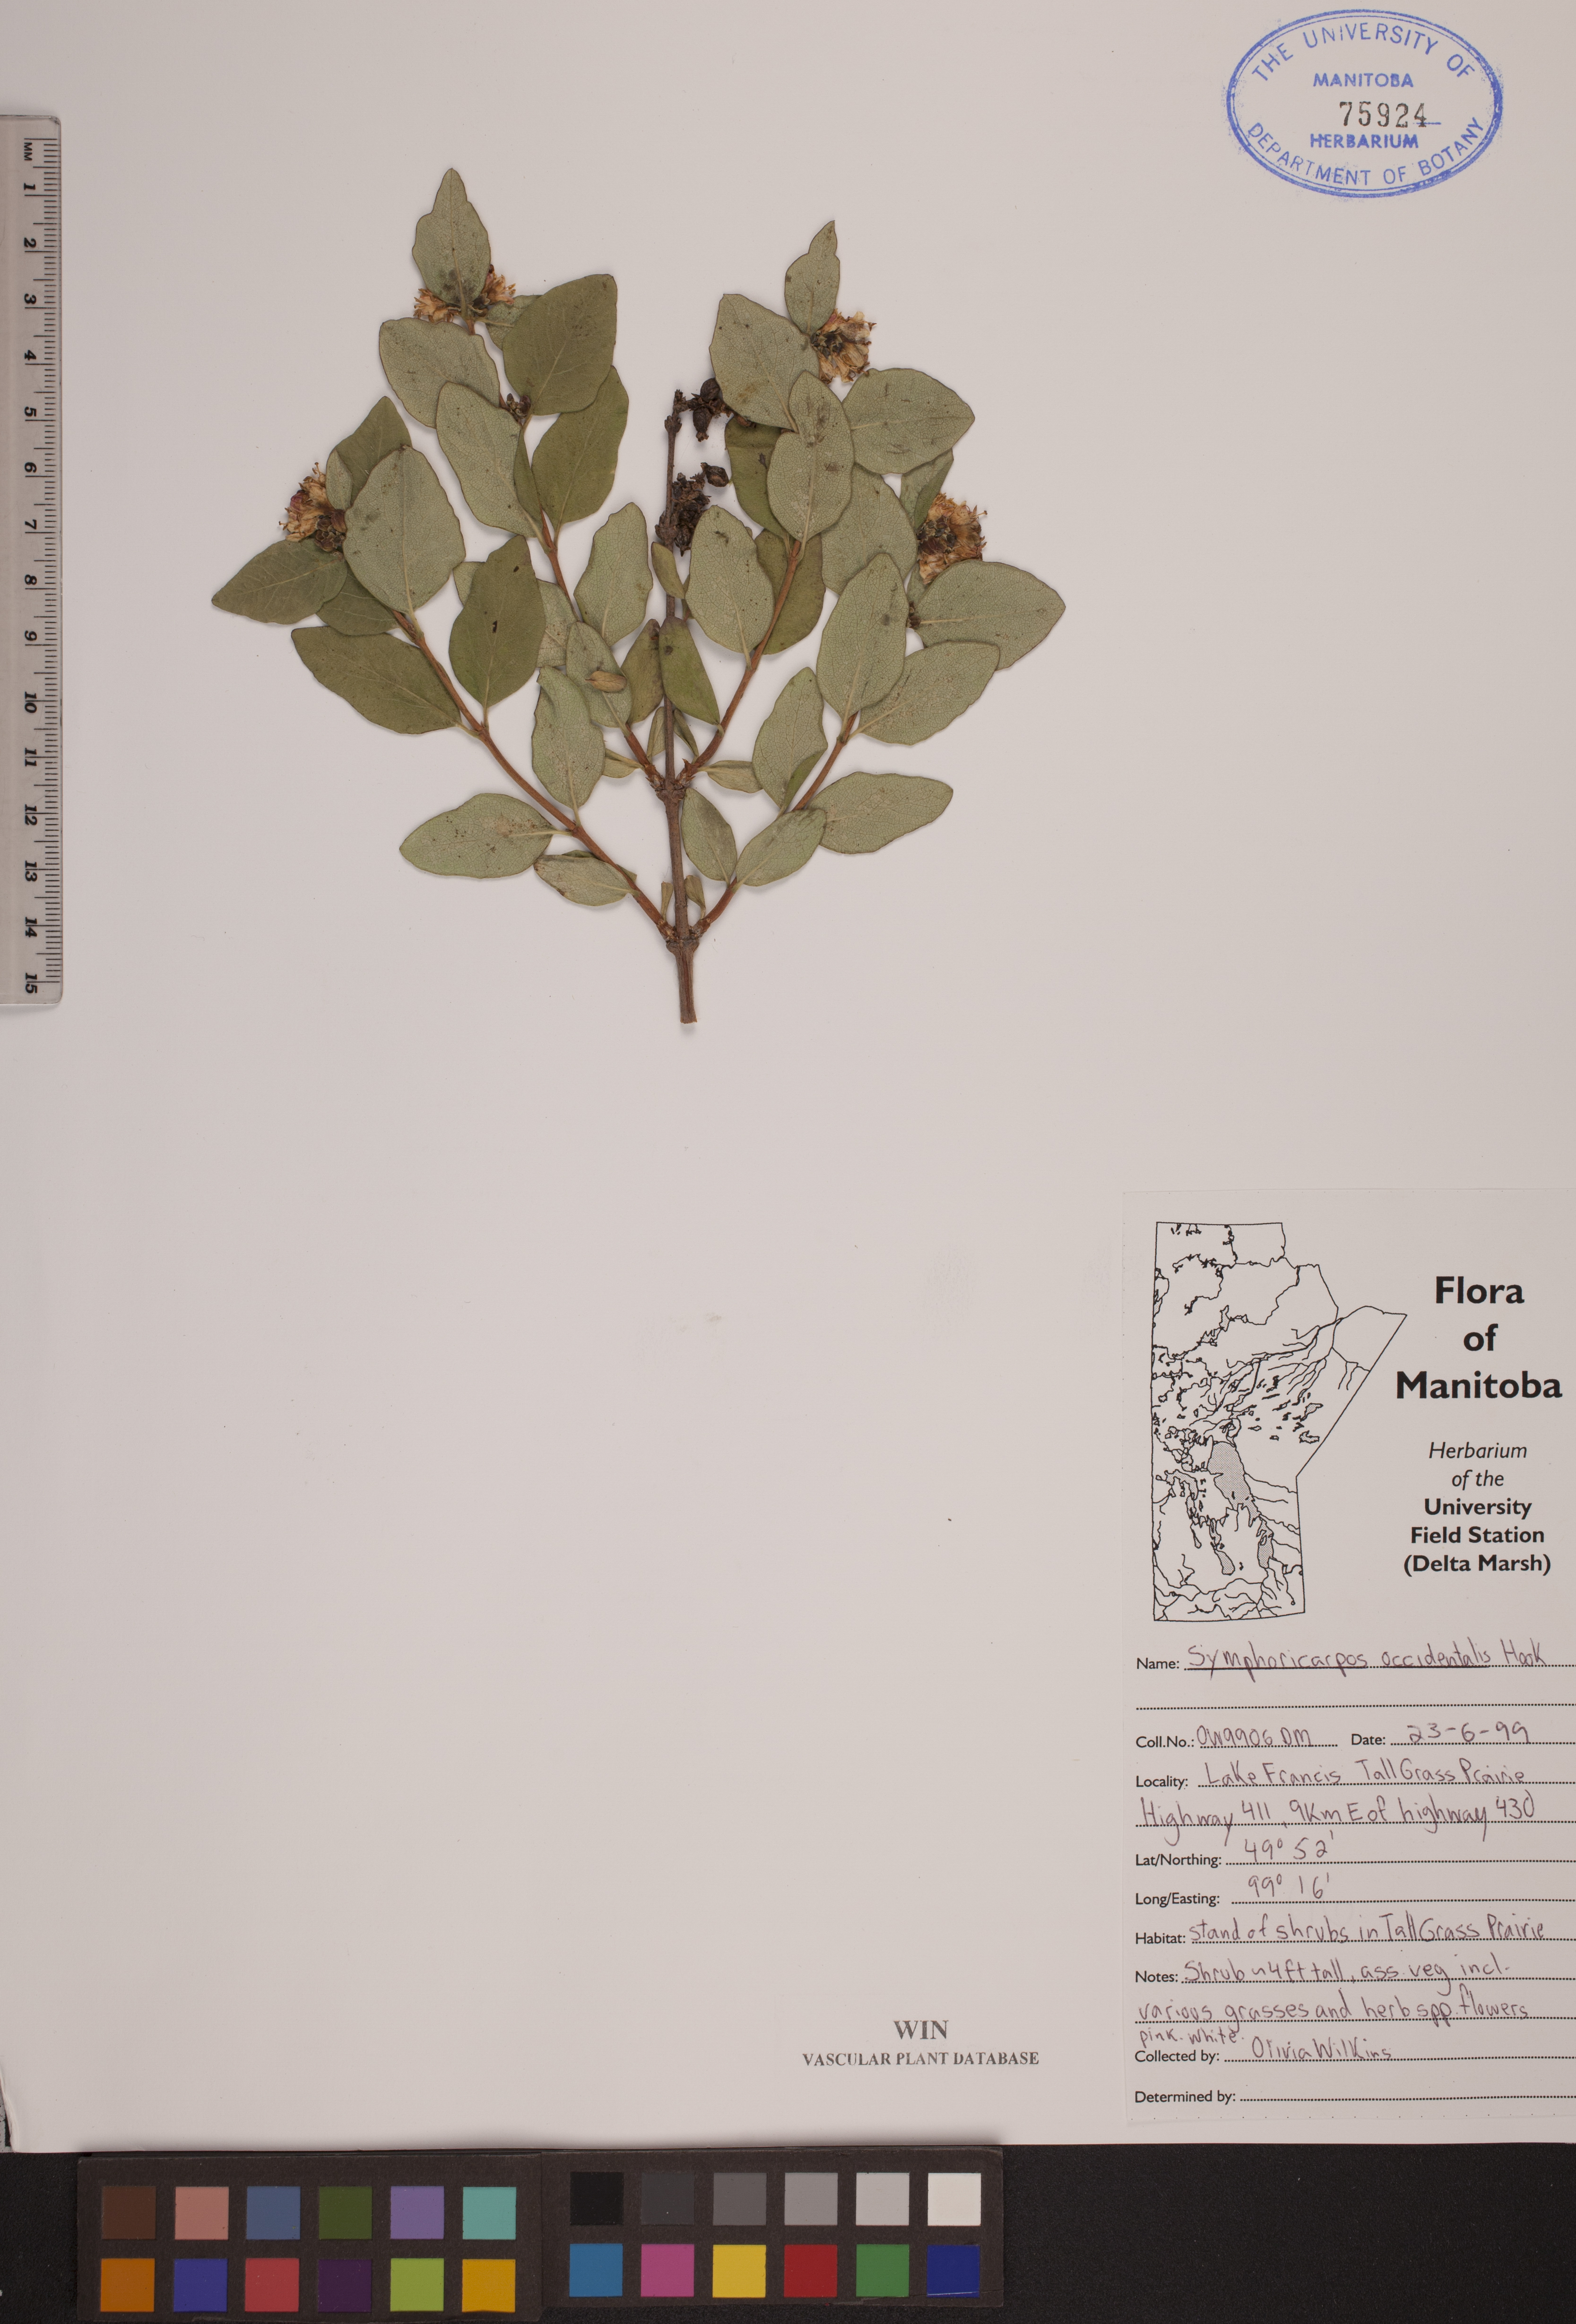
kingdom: Plantae
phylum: Tracheophyta
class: Magnoliopsida
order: Dipsacales
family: Caprifoliaceae
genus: Symphoricarpos
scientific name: Symphoricarpos occidentalis
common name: Wolfberry
